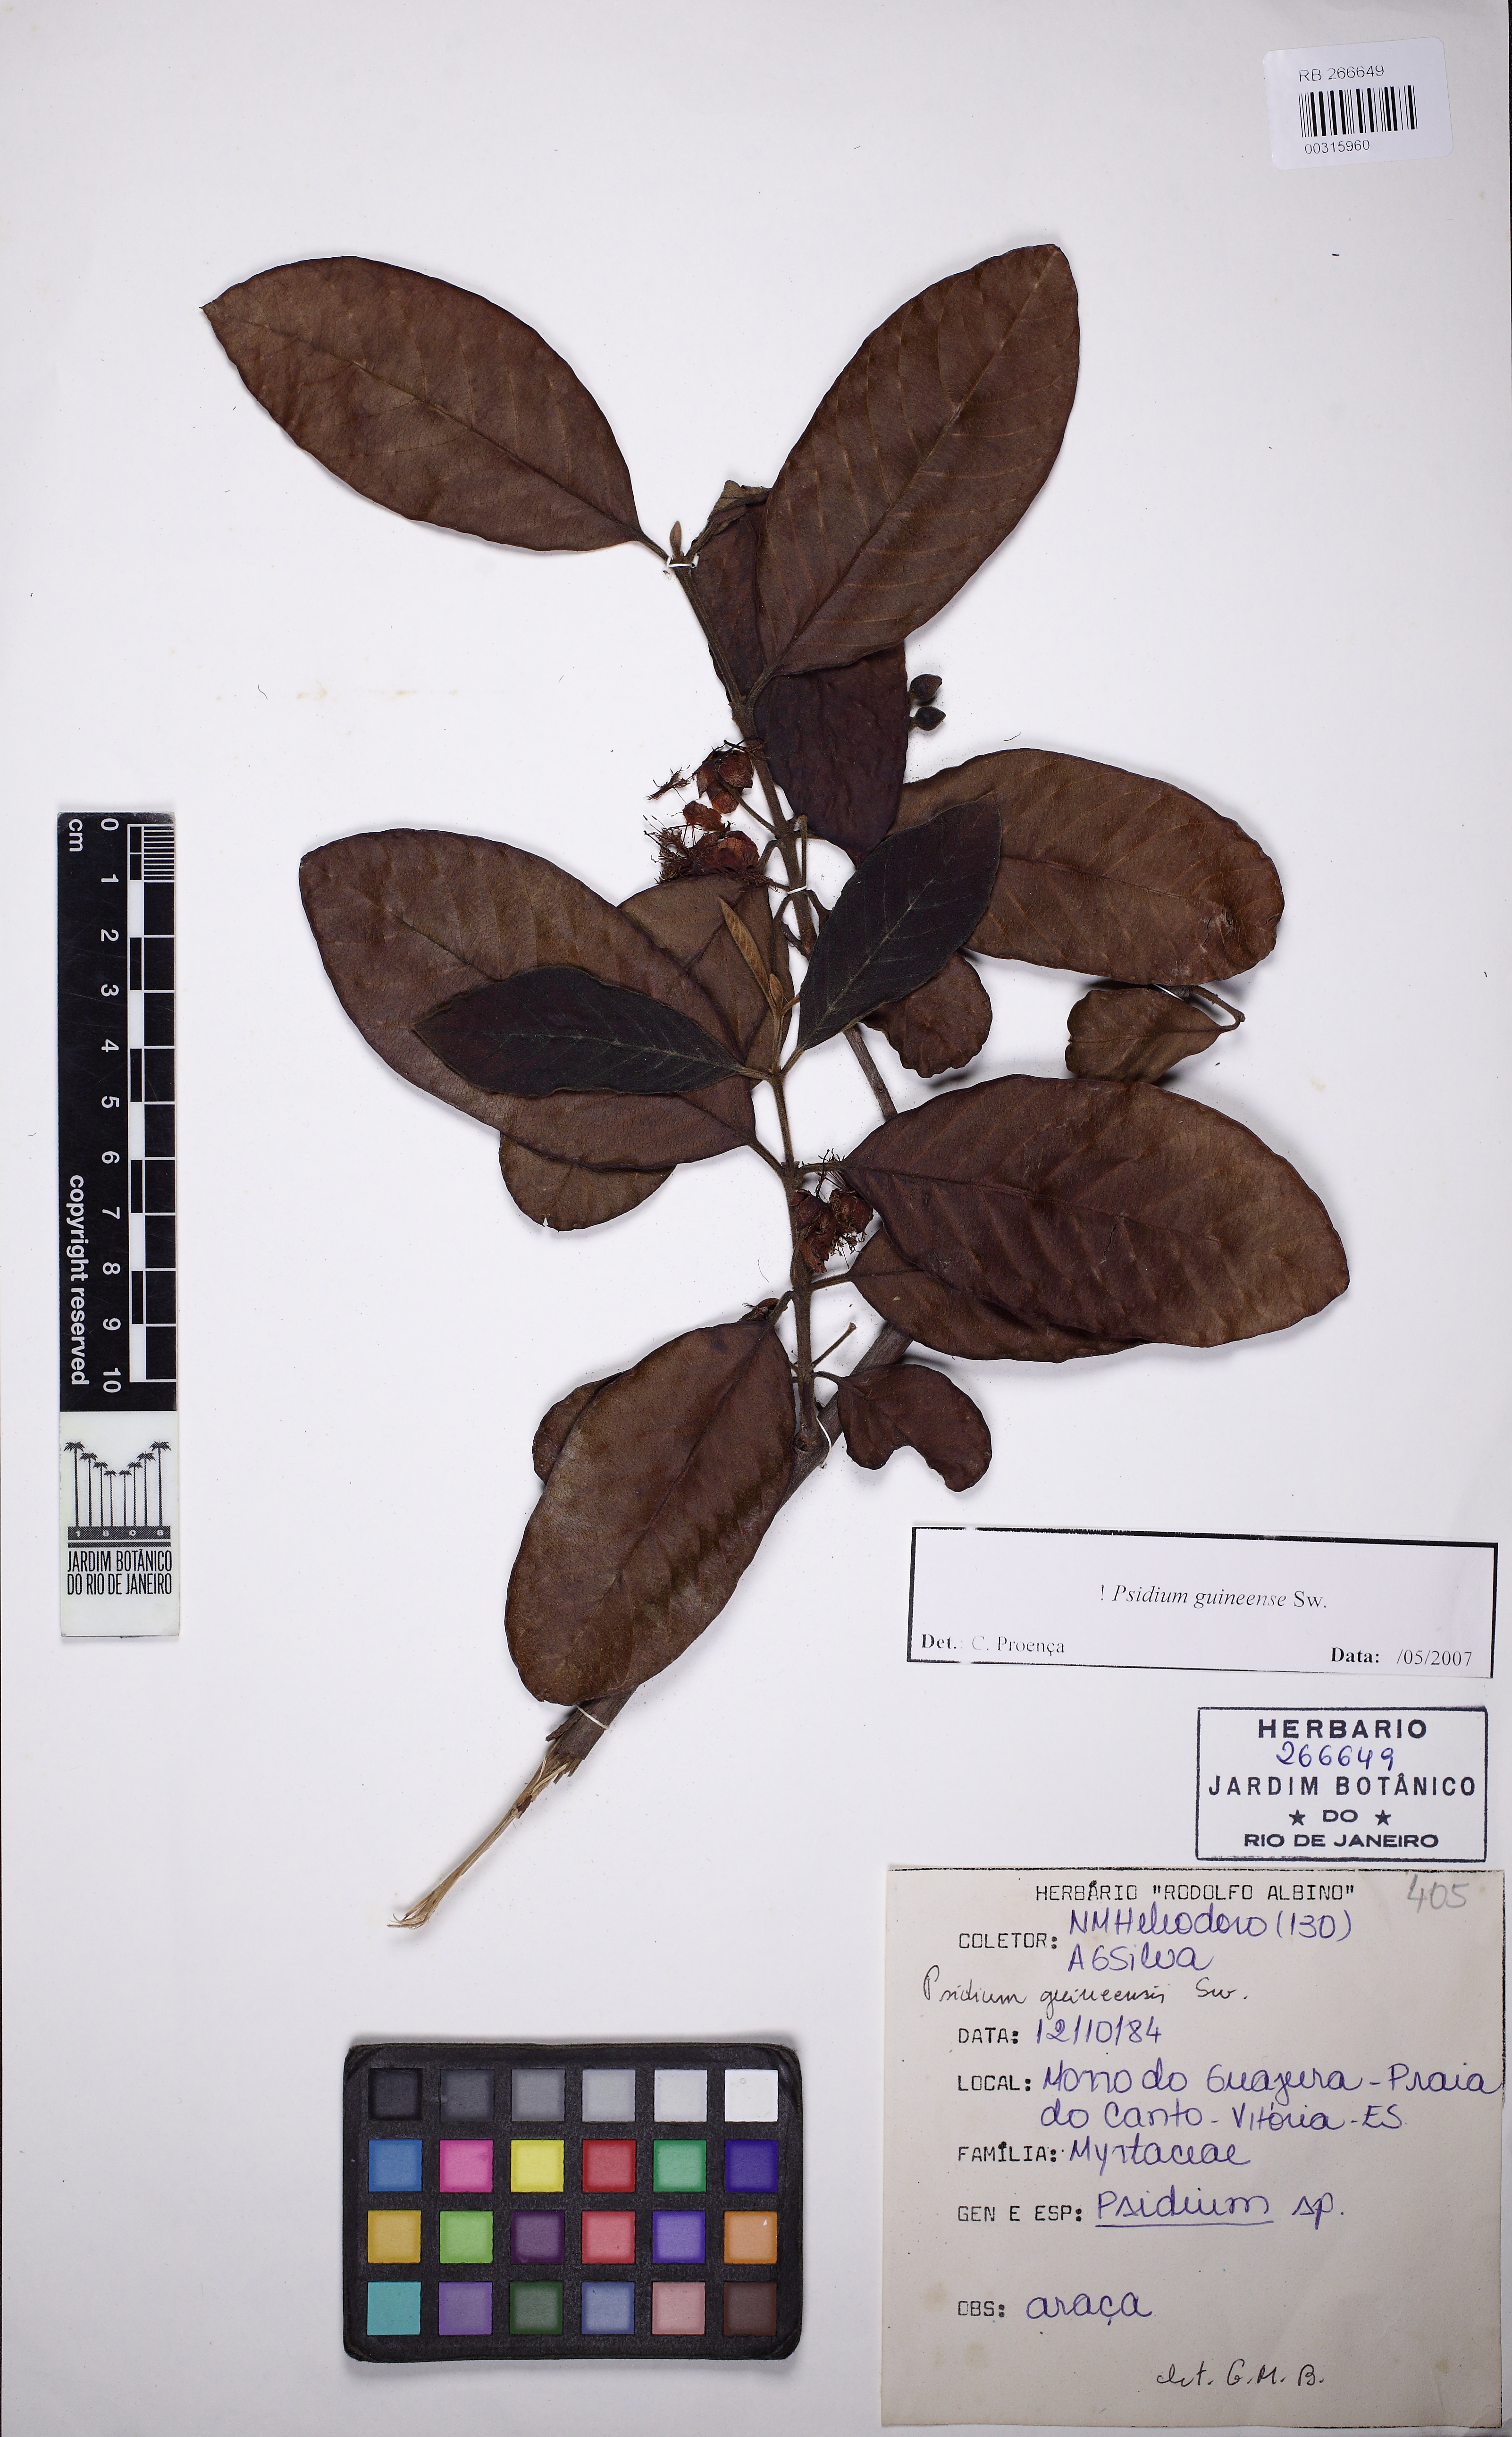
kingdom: Plantae
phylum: Tracheophyta
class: Magnoliopsida
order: Myrtales
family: Myrtaceae
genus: Psidium
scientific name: Psidium guineense
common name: Brazilian guava
